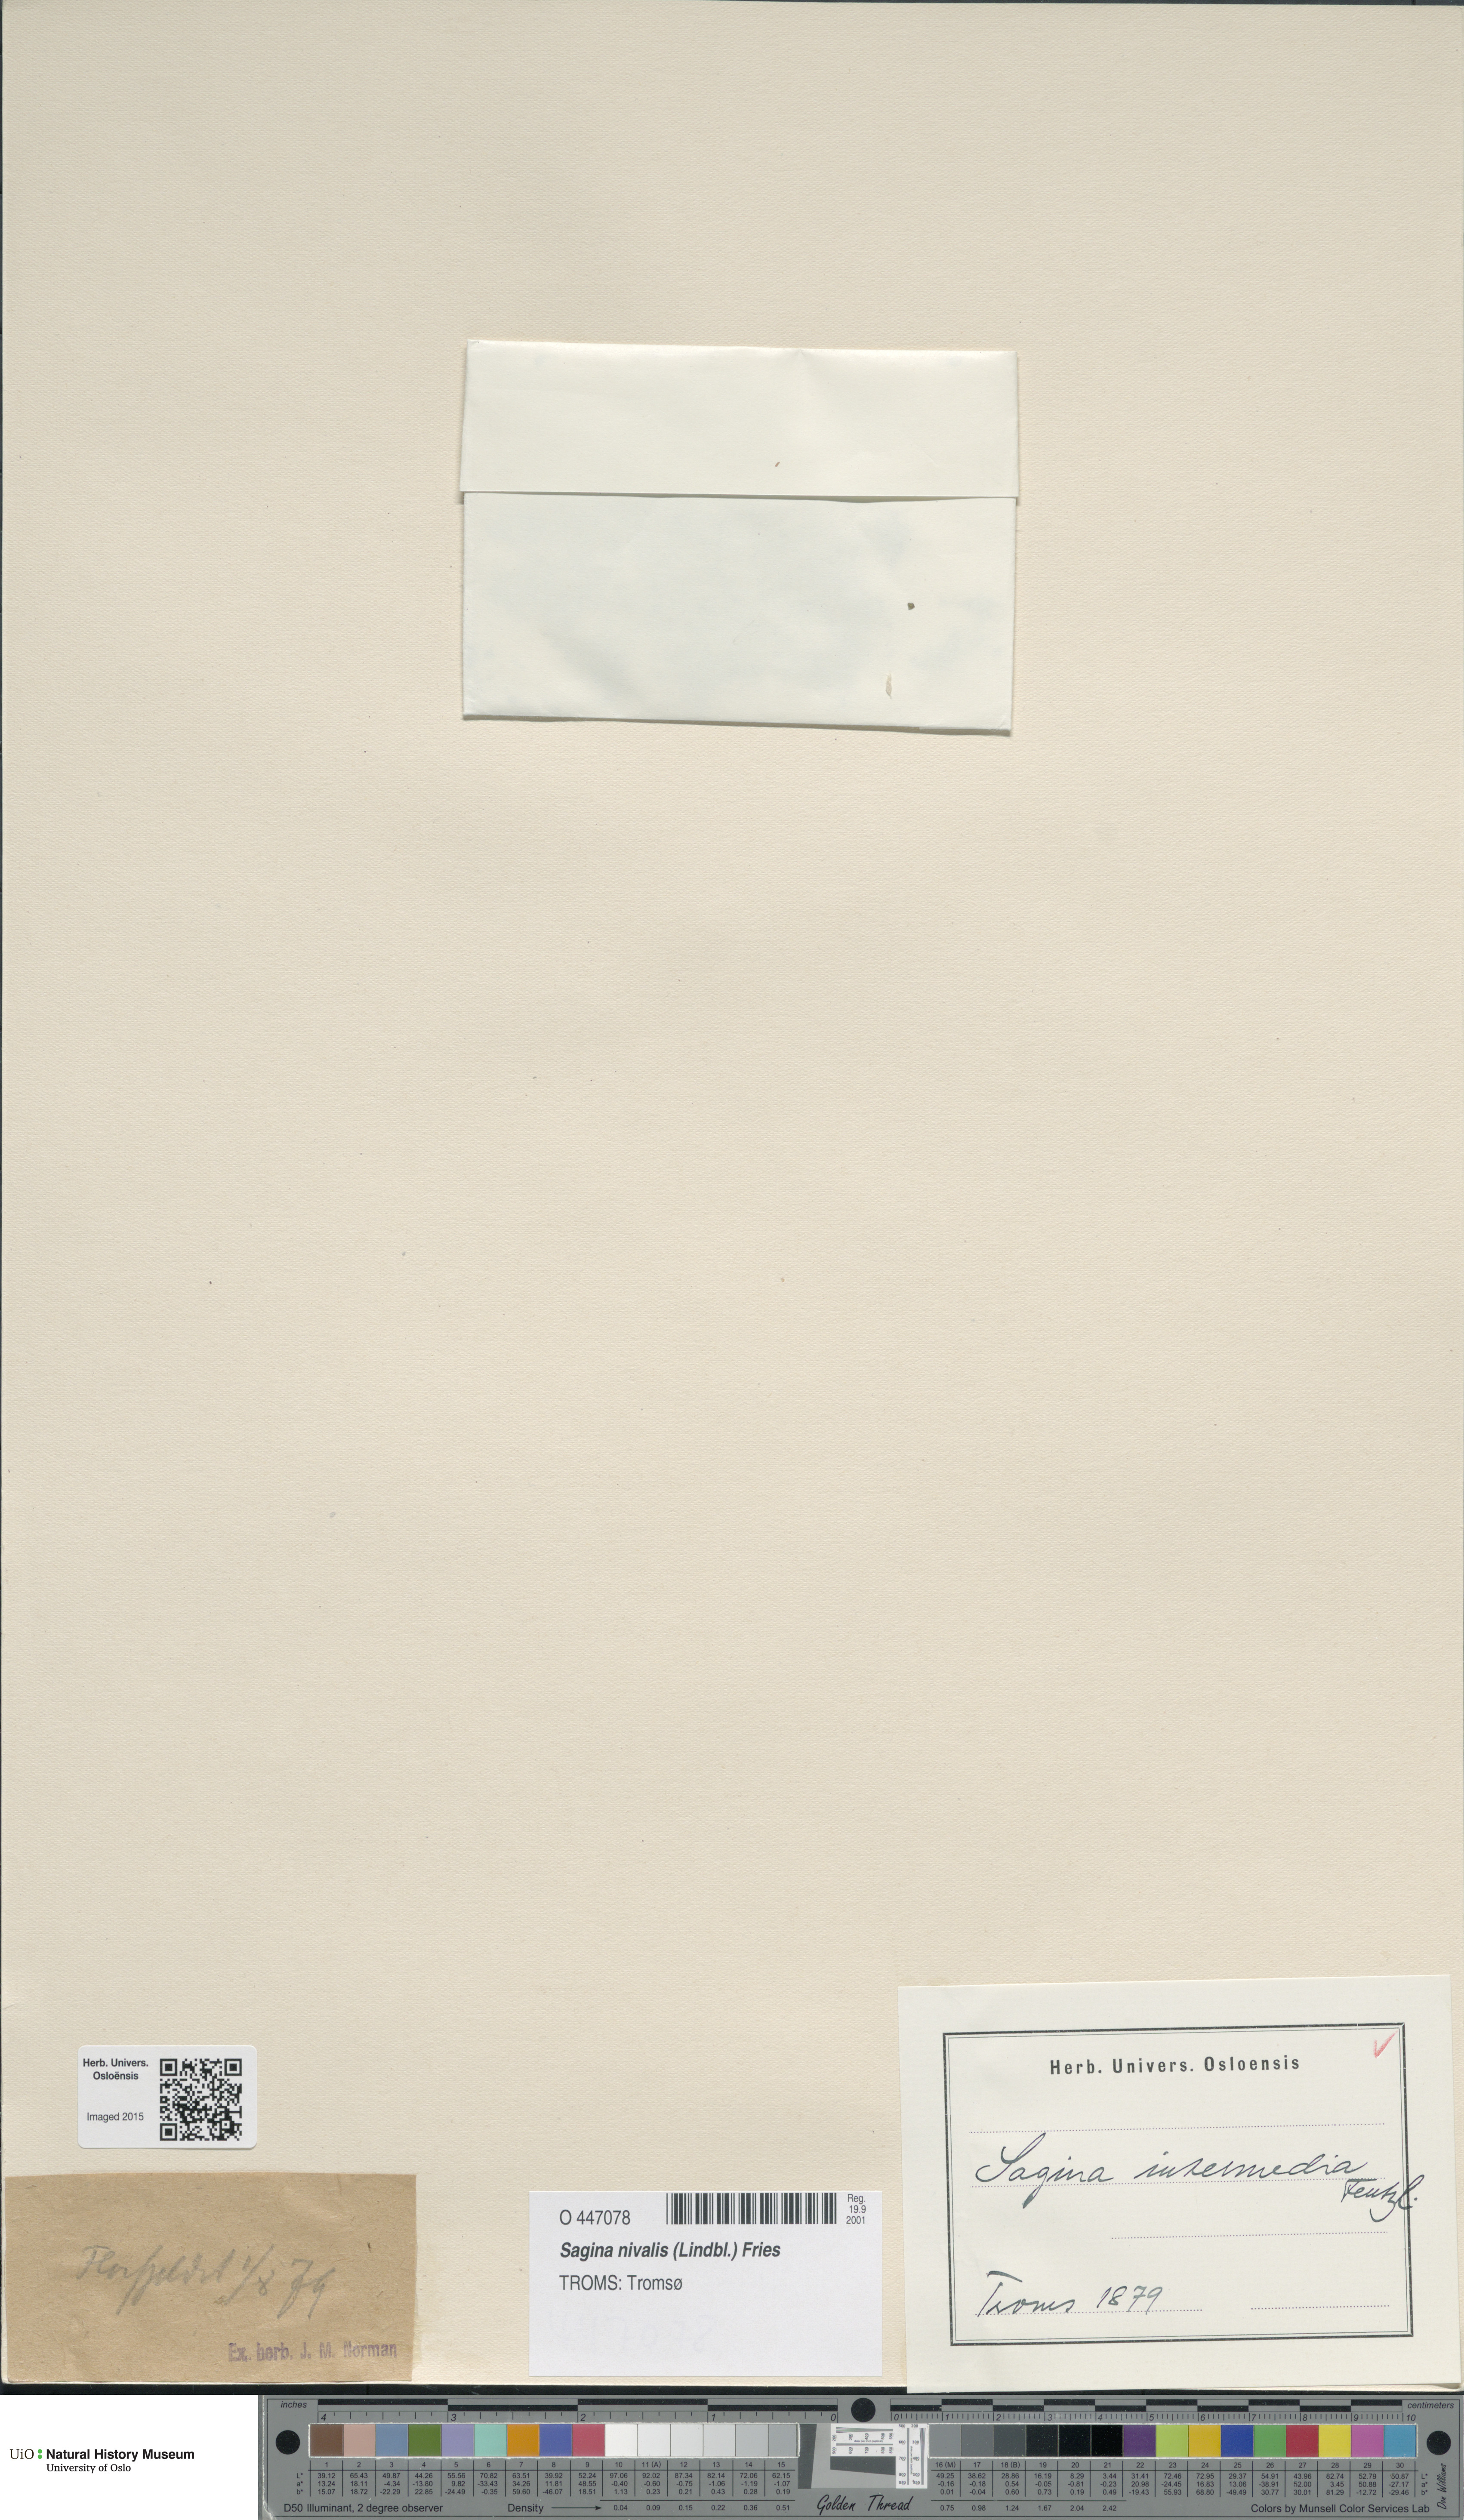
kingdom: Plantae
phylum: Tracheophyta
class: Magnoliopsida
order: Caryophyllales
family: Caryophyllaceae
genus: Sagina
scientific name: Sagina nivalis
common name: Snow pearlwort
